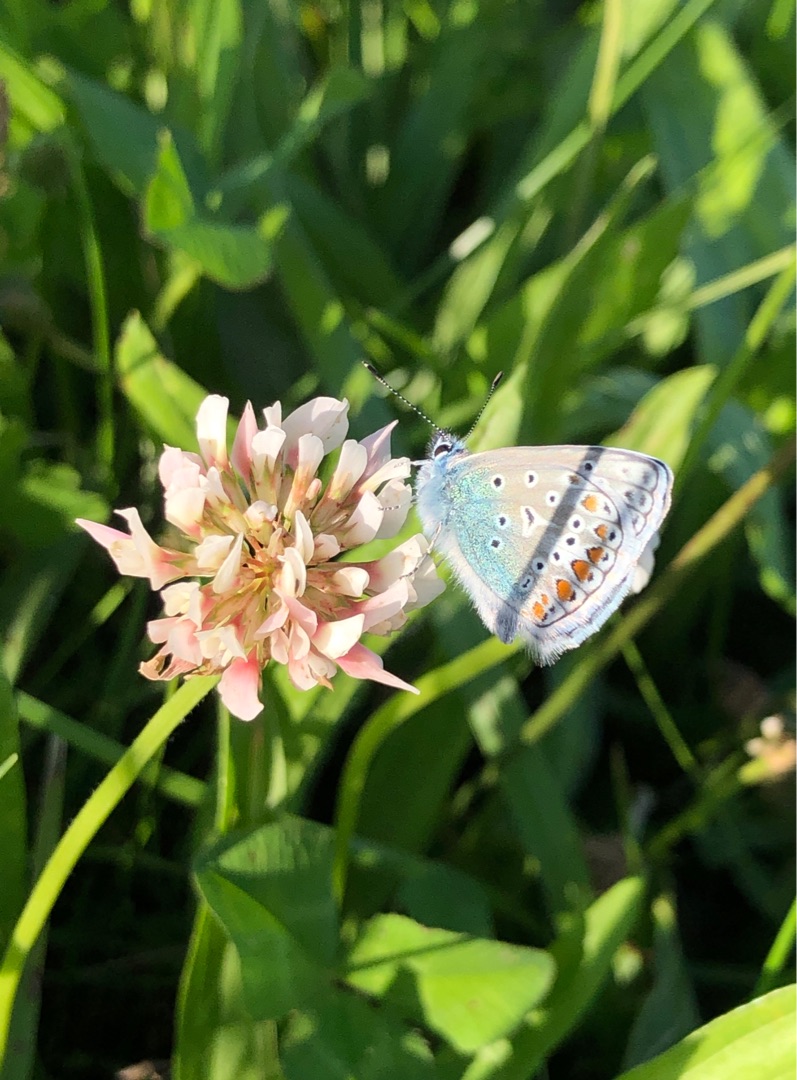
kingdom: Animalia
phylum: Arthropoda
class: Insecta
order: Lepidoptera
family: Lycaenidae
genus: Polyommatus
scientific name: Polyommatus icarus
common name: Almindelig blåfugl
